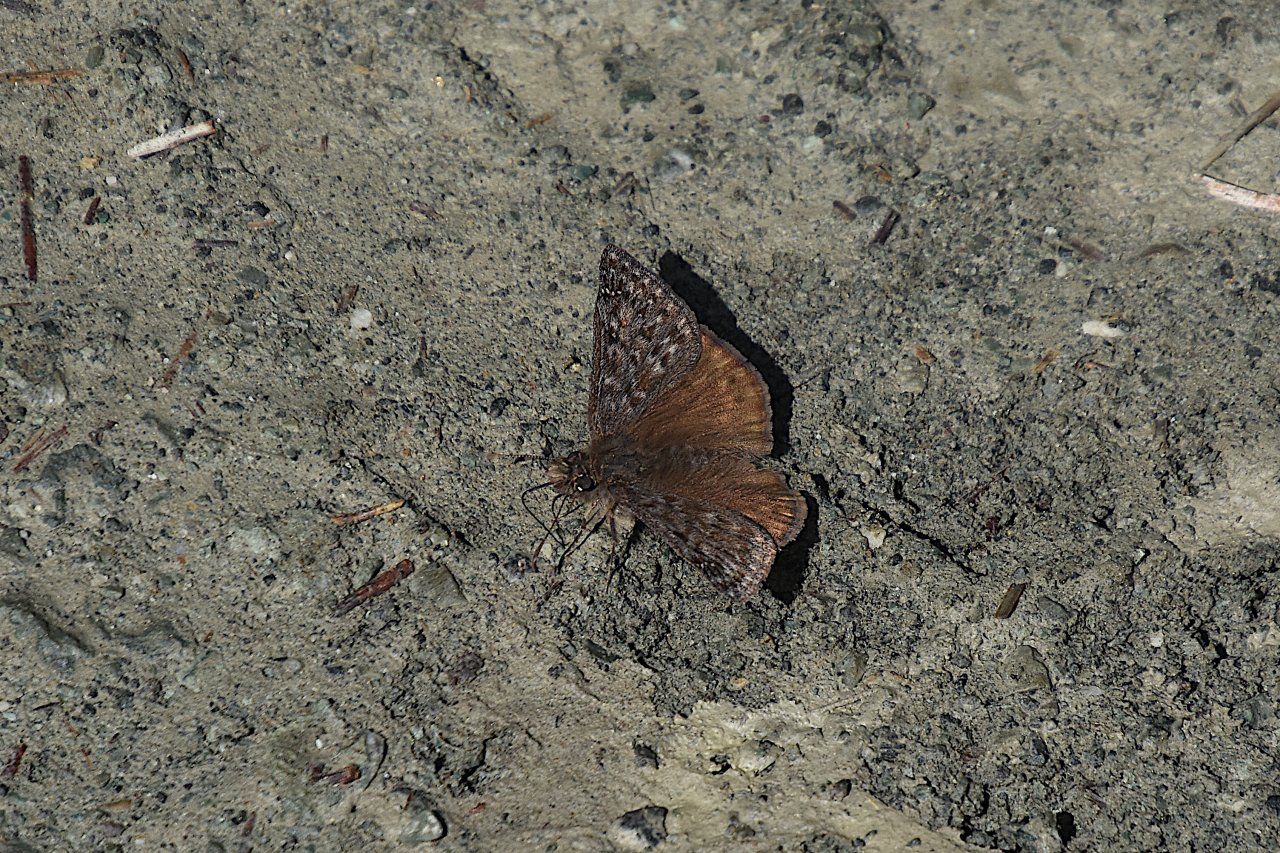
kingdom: Animalia
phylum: Arthropoda
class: Insecta
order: Lepidoptera
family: Hesperiidae
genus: Erynnis
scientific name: Erynnis propertius
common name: Propertius Duskywing
